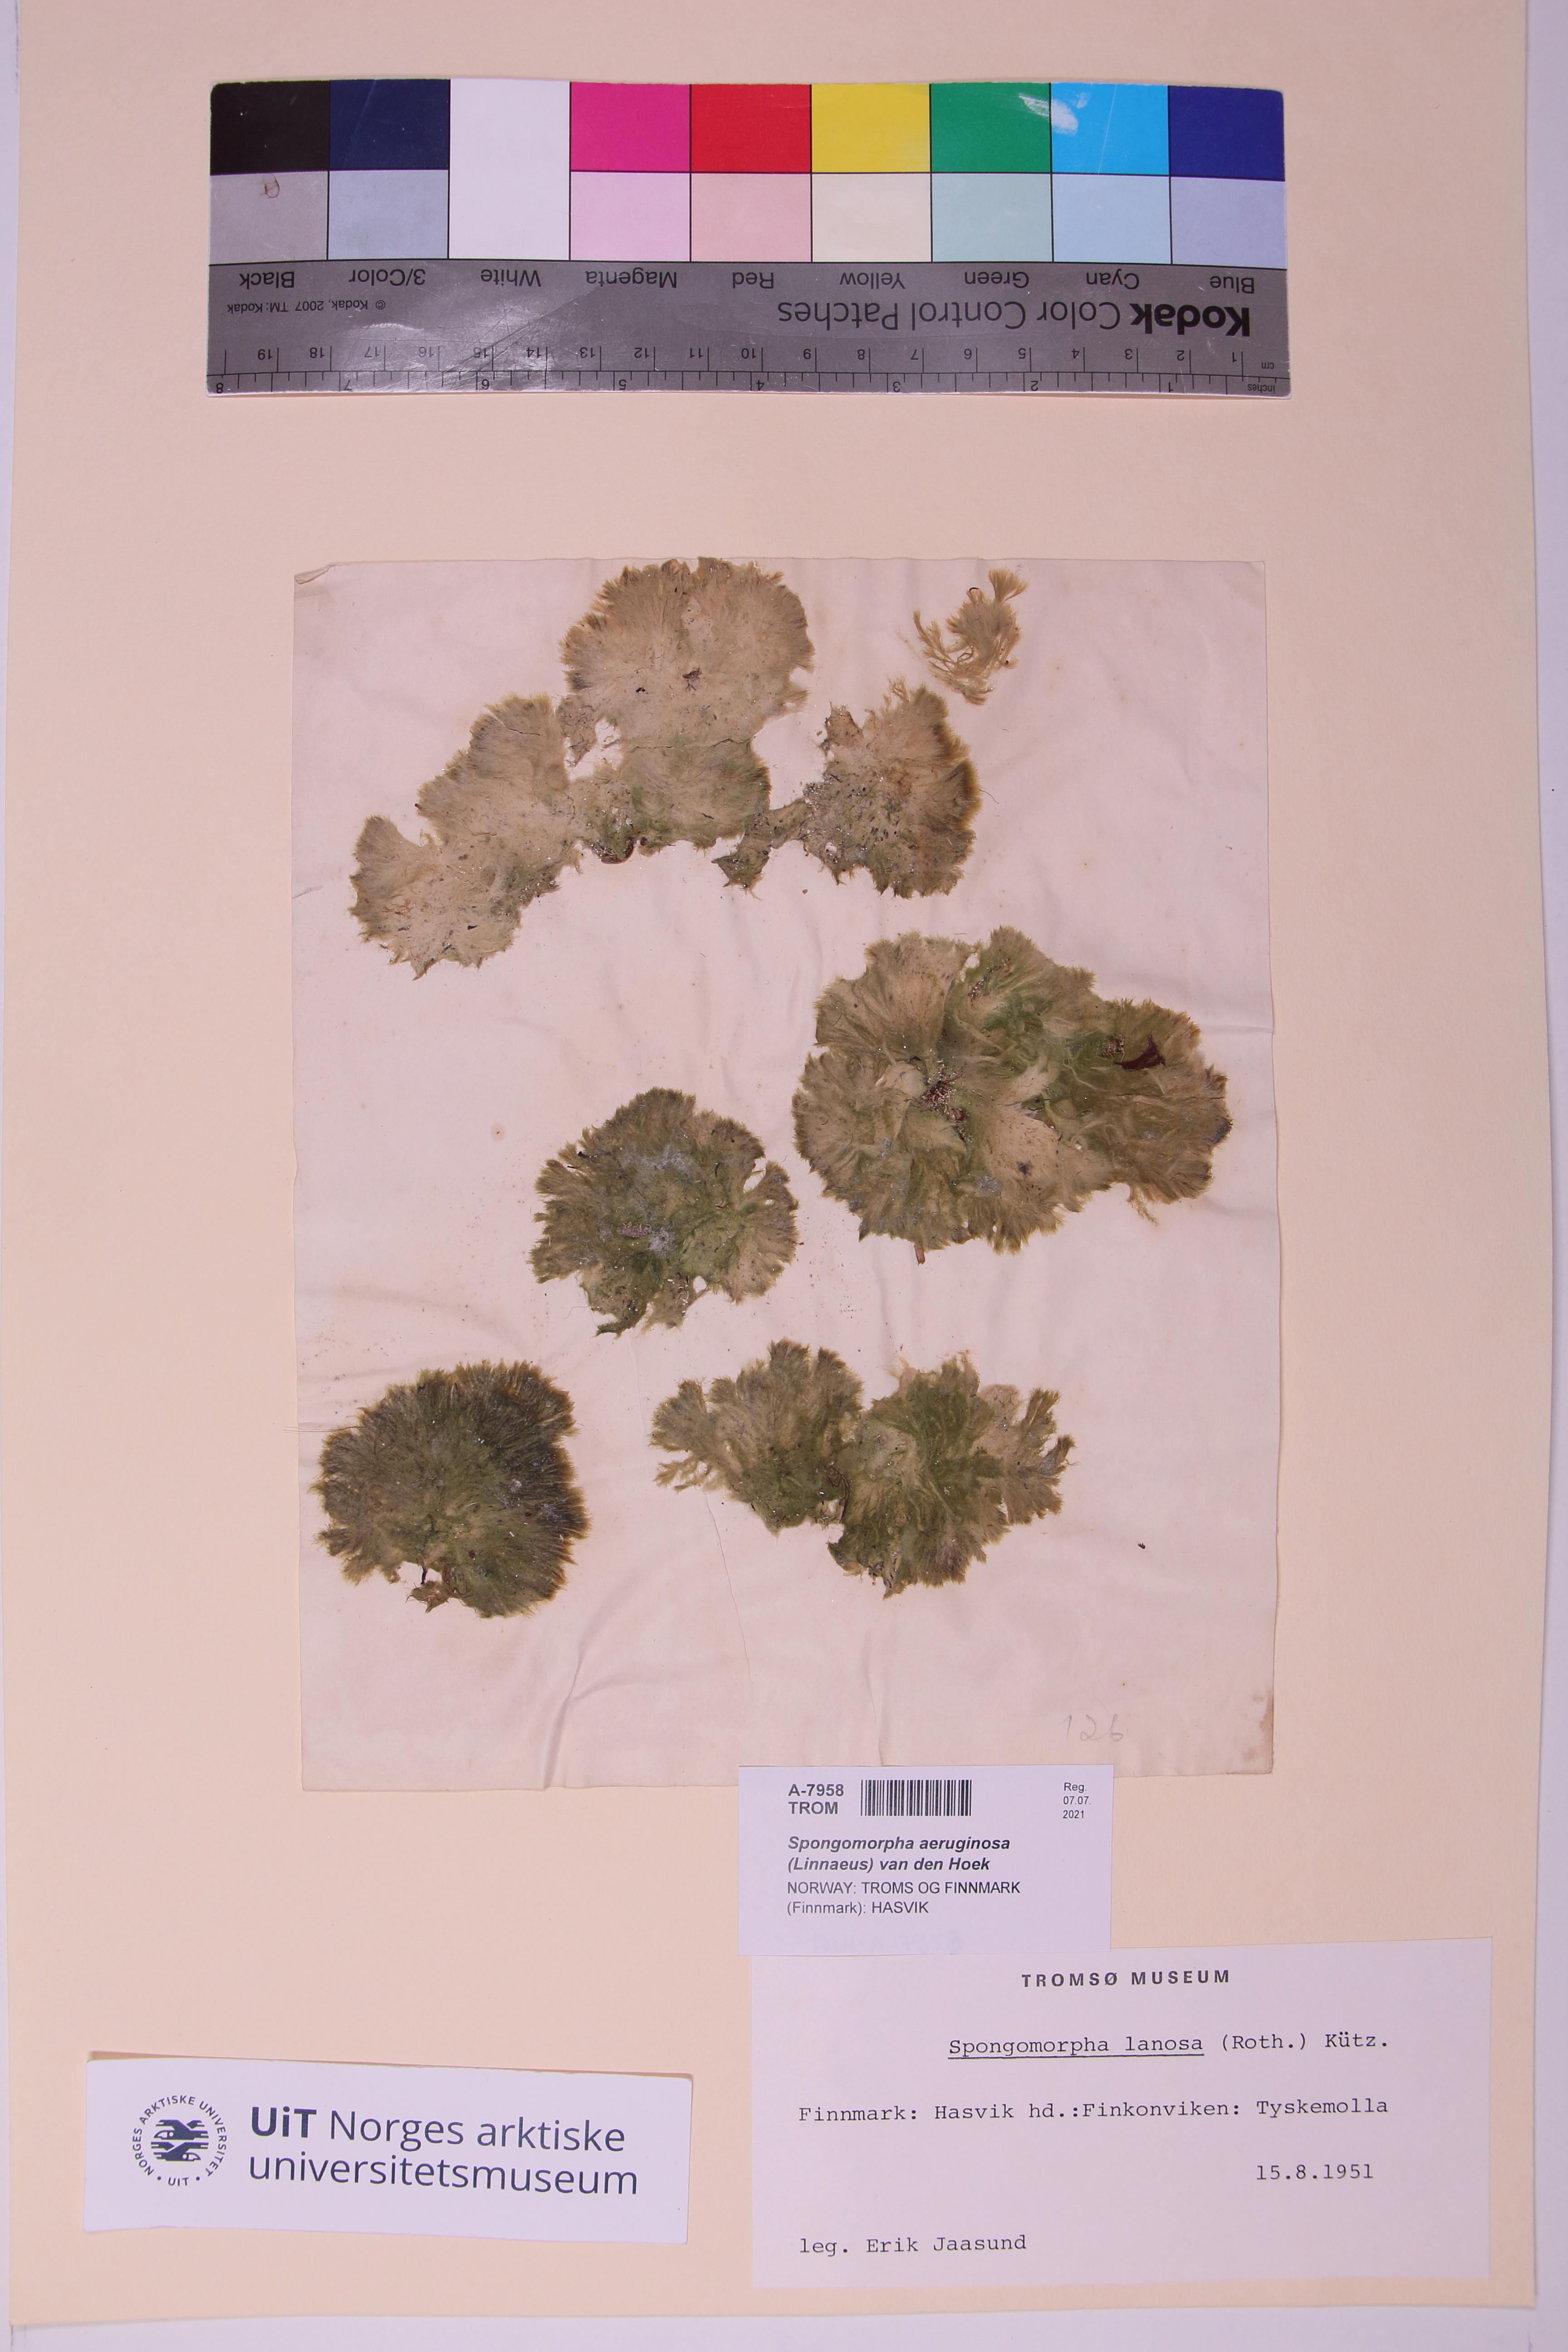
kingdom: Plantae
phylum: Chlorophyta
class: Ulvophyceae
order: Ulotrichales
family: Ulotrichaceae
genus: Spongomorpha
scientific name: Spongomorpha aeruginosa
